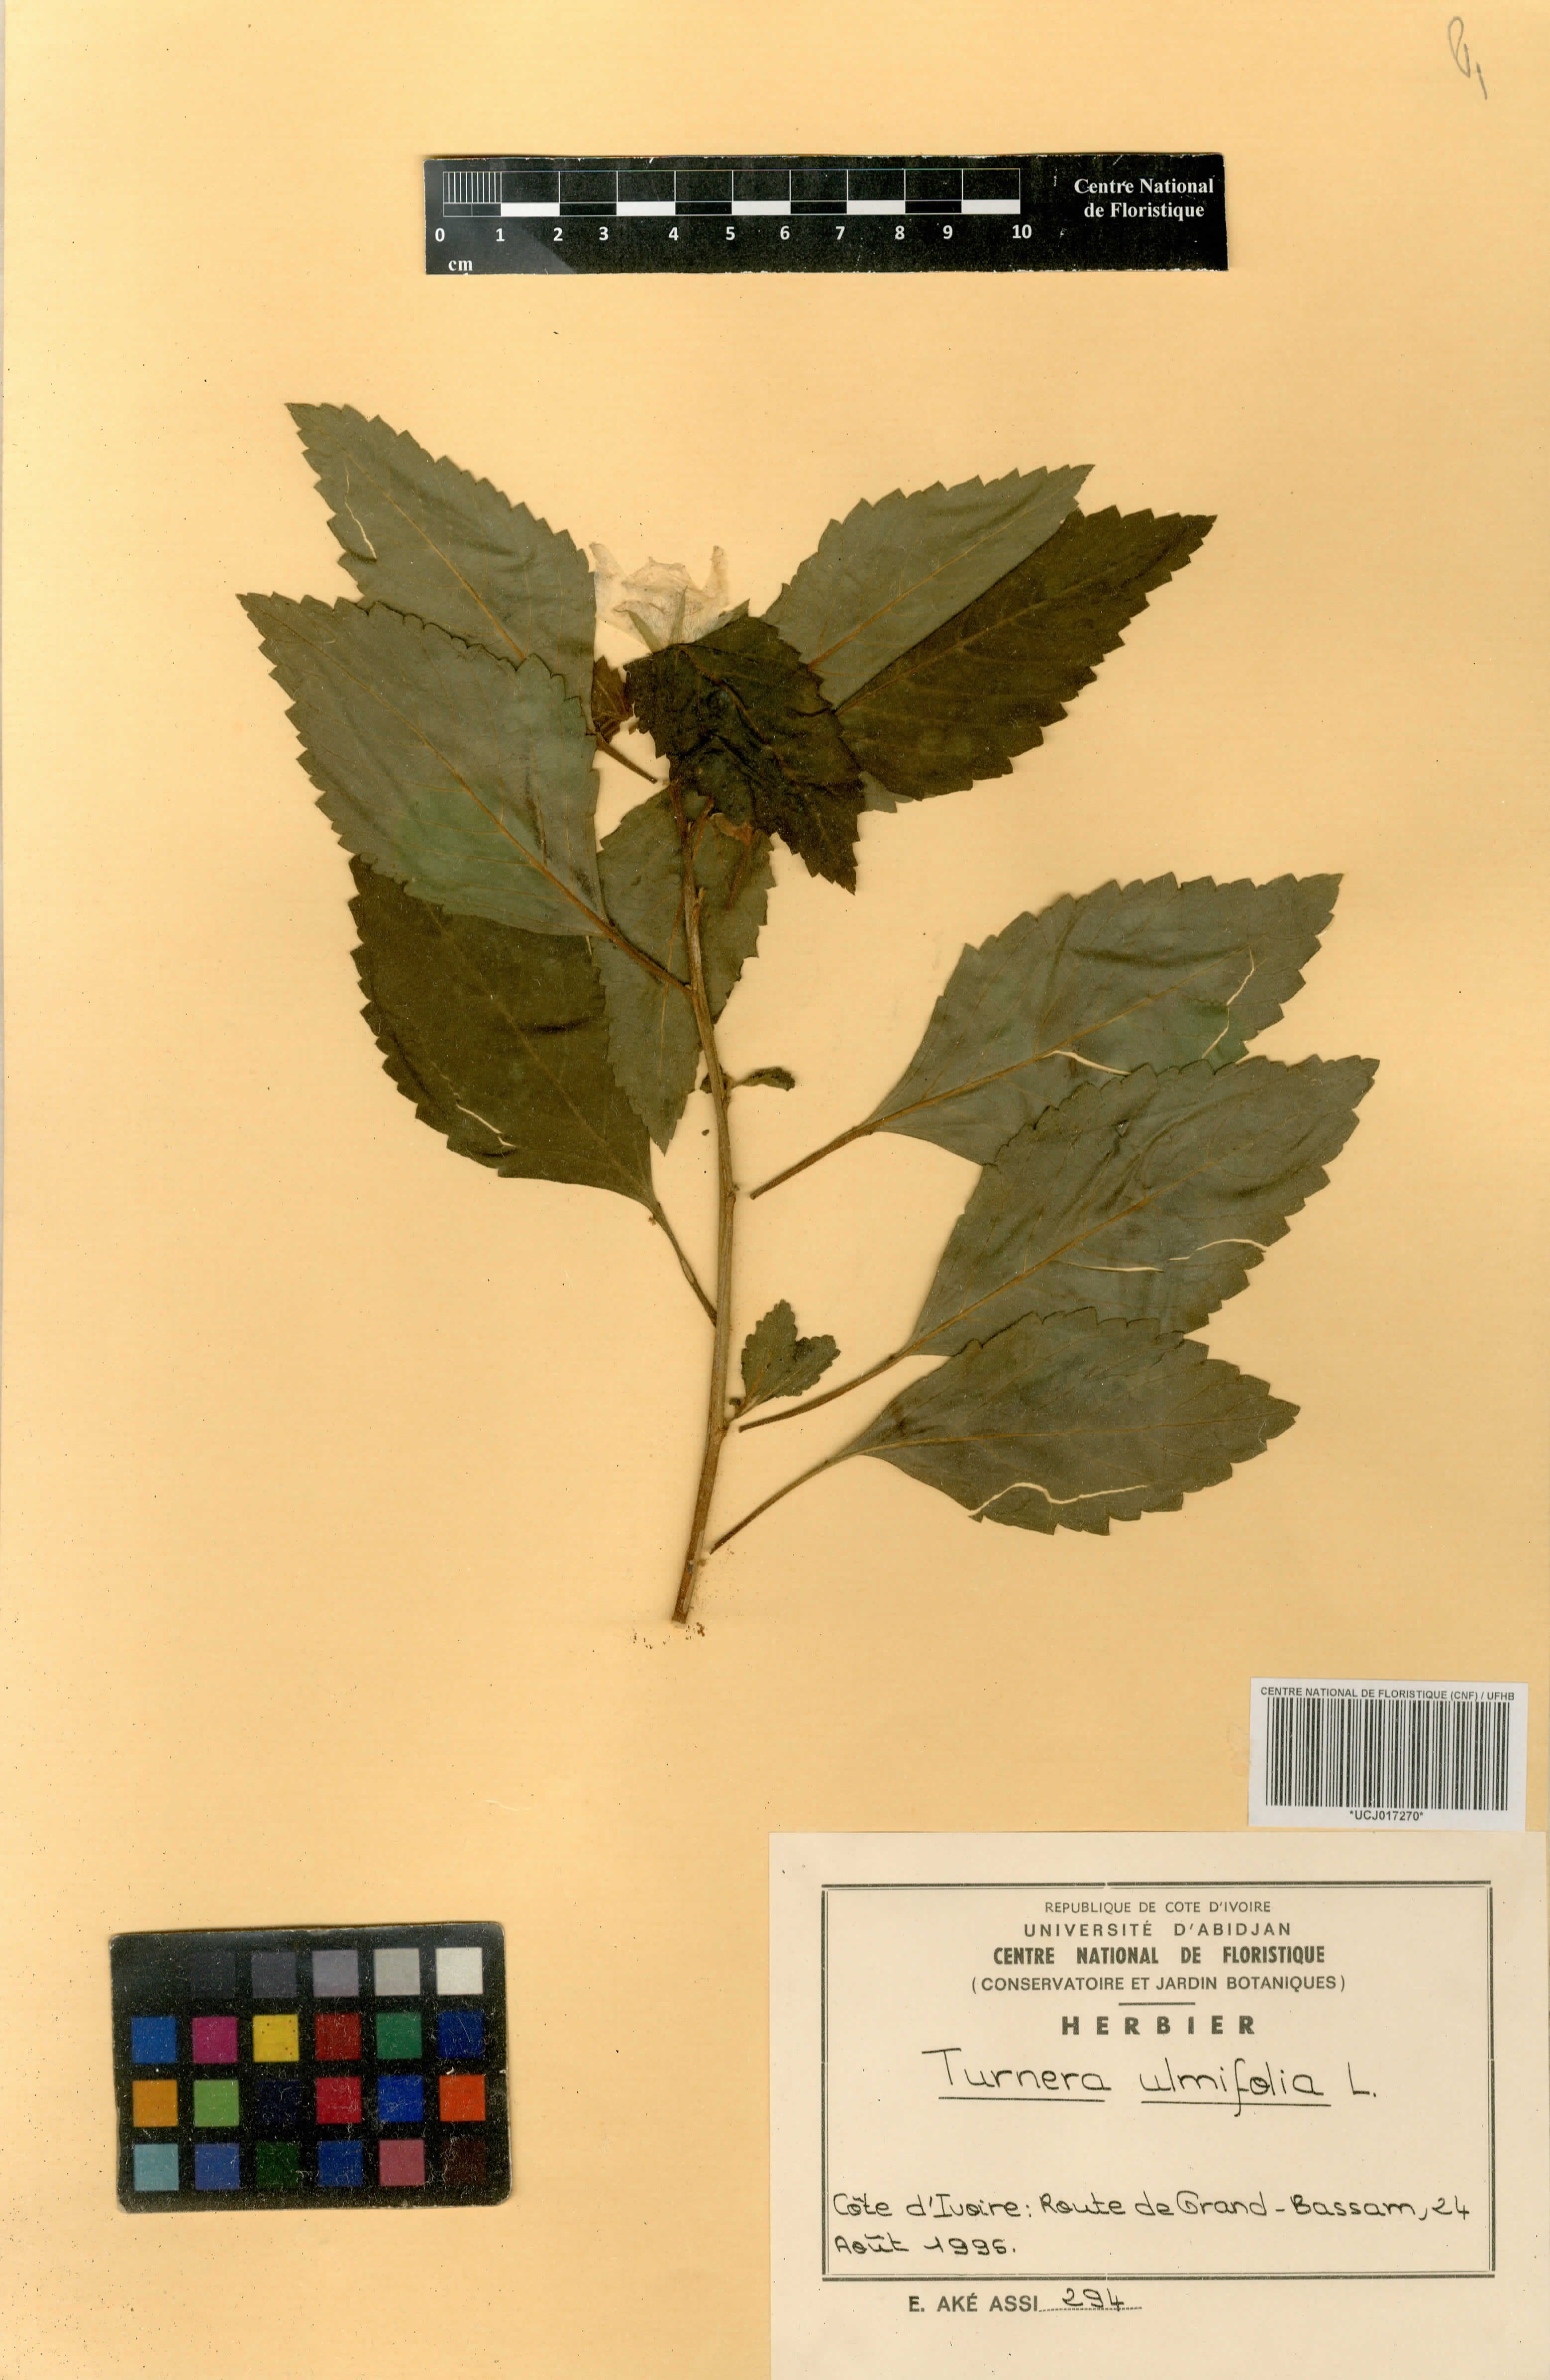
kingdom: Plantae
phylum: Tracheophyta
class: Magnoliopsida
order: Malpighiales
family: Turneraceae
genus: Turnera
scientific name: Turnera ulmifolia
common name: Ramgoat dashalong
